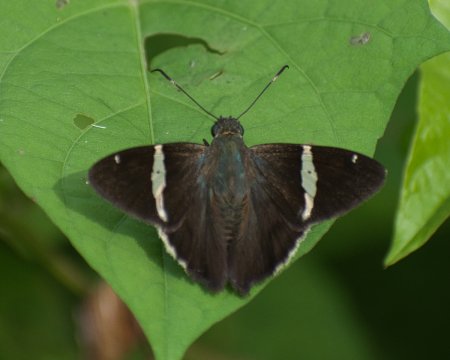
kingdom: Animalia
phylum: Arthropoda
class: Insecta
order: Lepidoptera
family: Hesperiidae
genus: Autochton
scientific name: Autochton longipennis
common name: Spike Banded-Skipper
